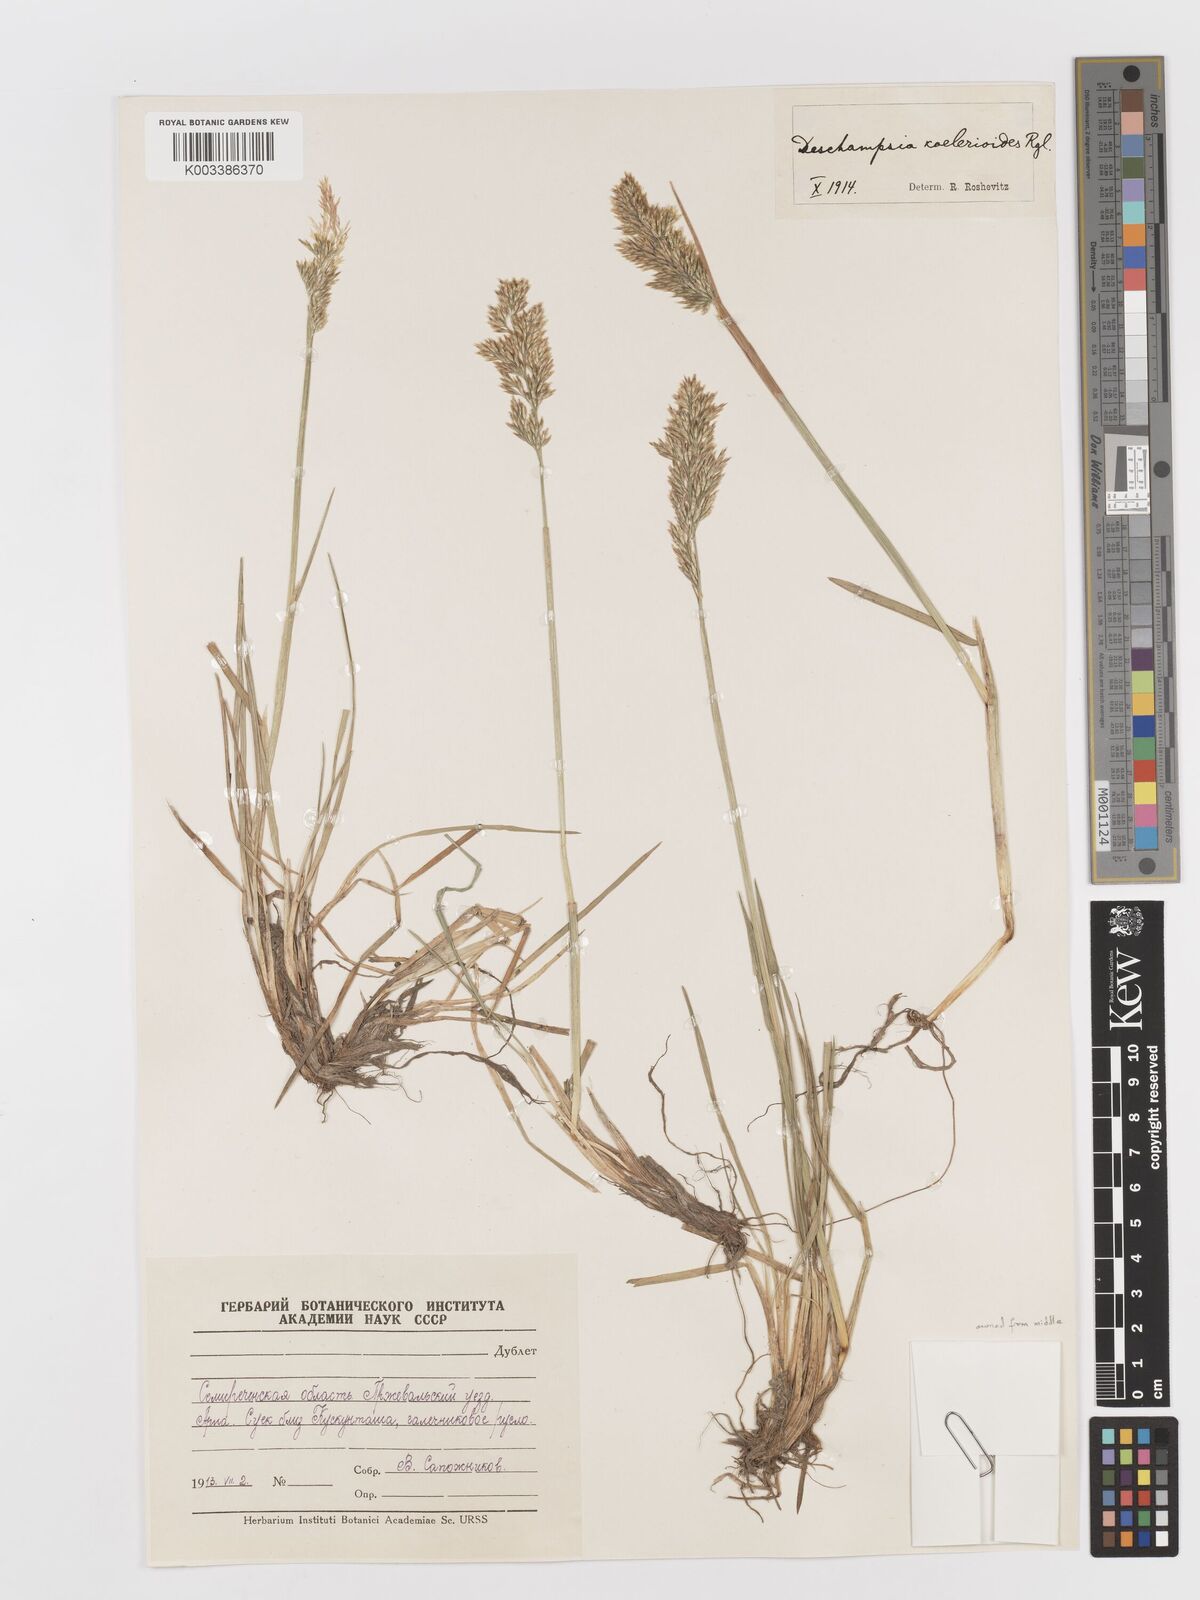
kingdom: Plantae
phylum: Tracheophyta
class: Liliopsida
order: Poales
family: Poaceae
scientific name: Poaceae
